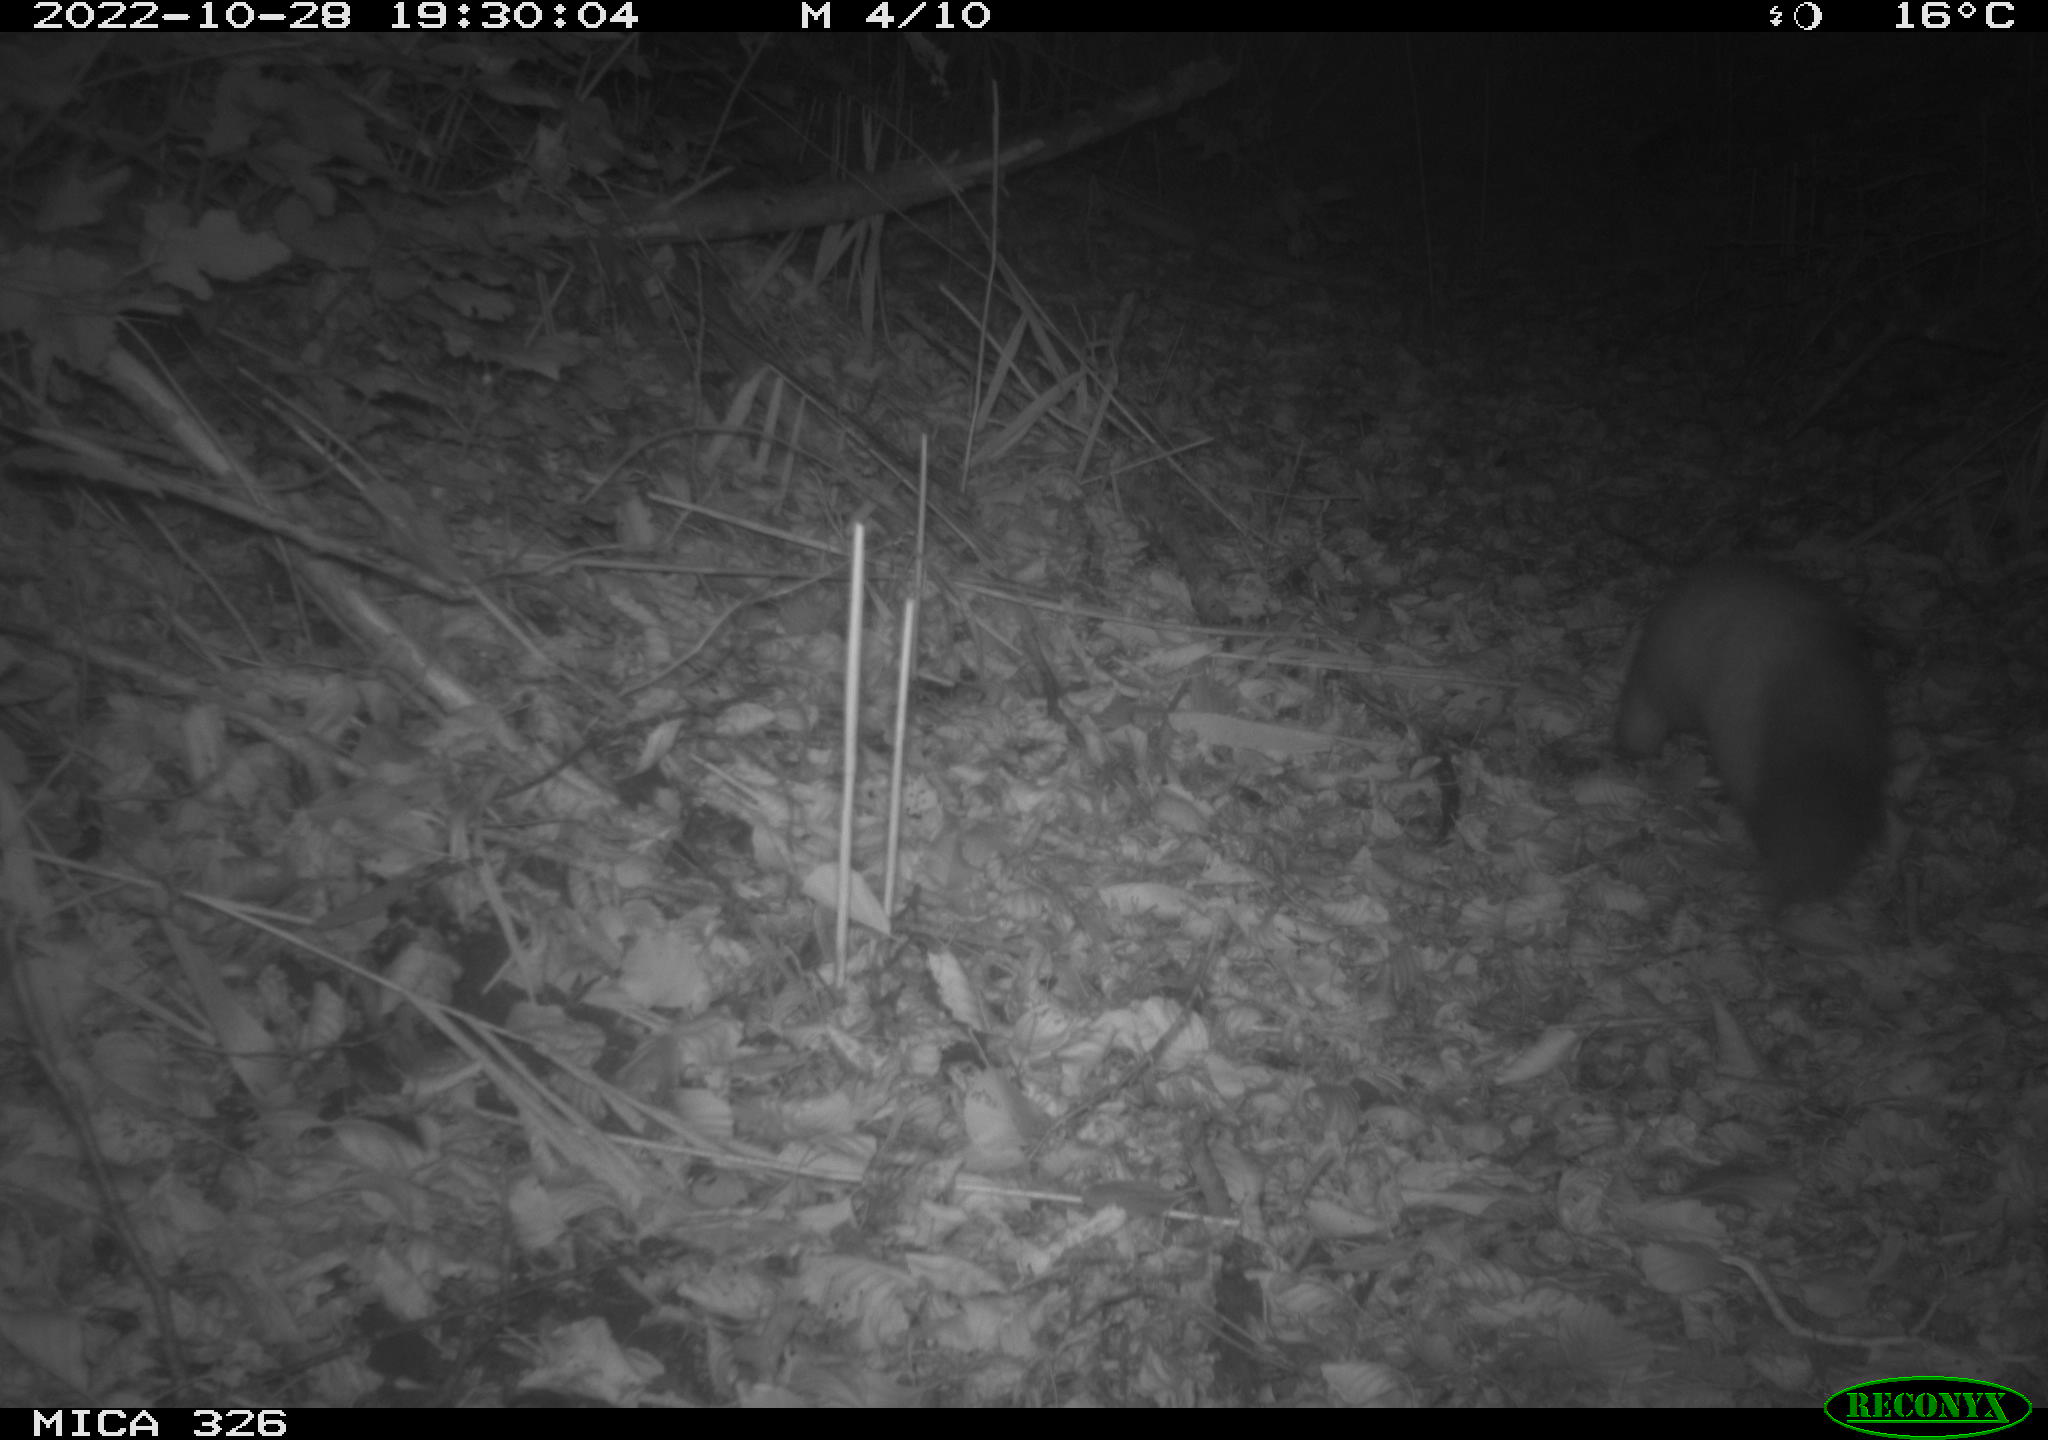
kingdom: Animalia
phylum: Chordata
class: Mammalia
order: Carnivora
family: Mustelidae
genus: Martes
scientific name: Martes martes
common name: European pine marten
